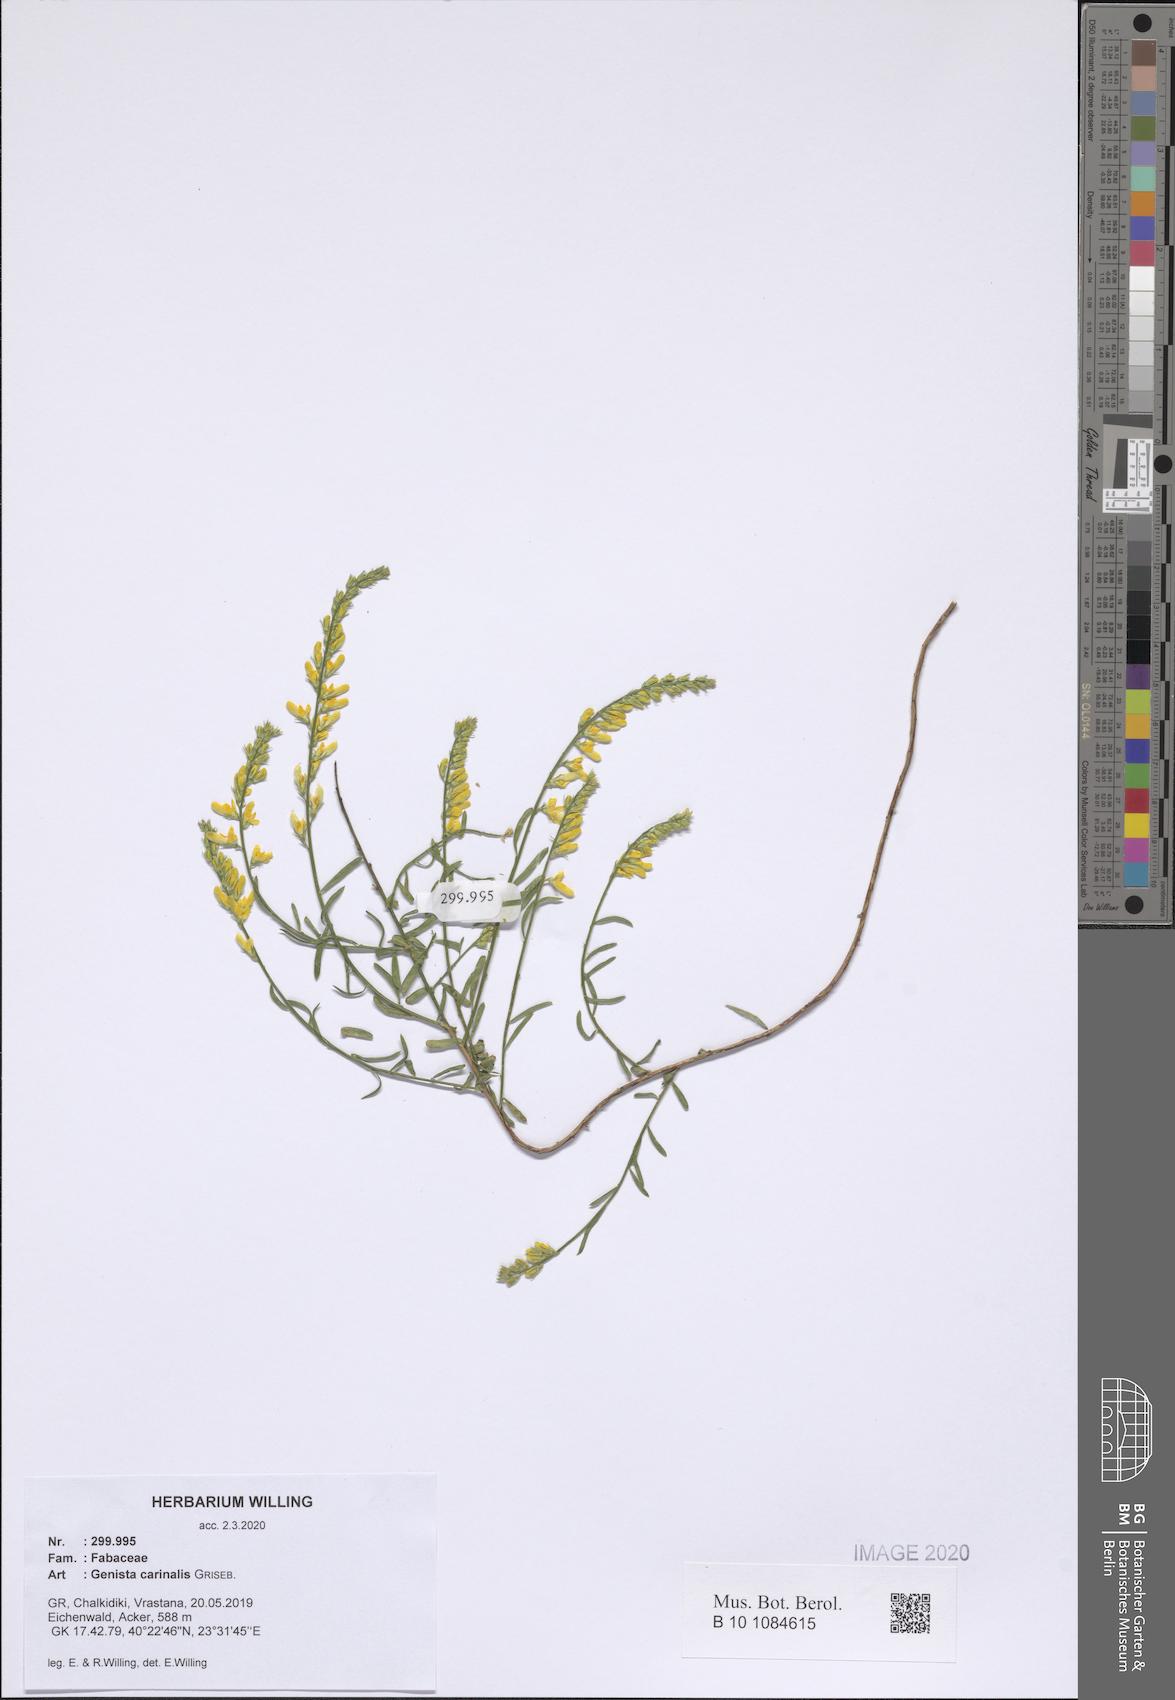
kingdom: Plantae
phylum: Tracheophyta
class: Magnoliopsida
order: Fabales
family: Fabaceae
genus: Genista
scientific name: Genista carinalis
